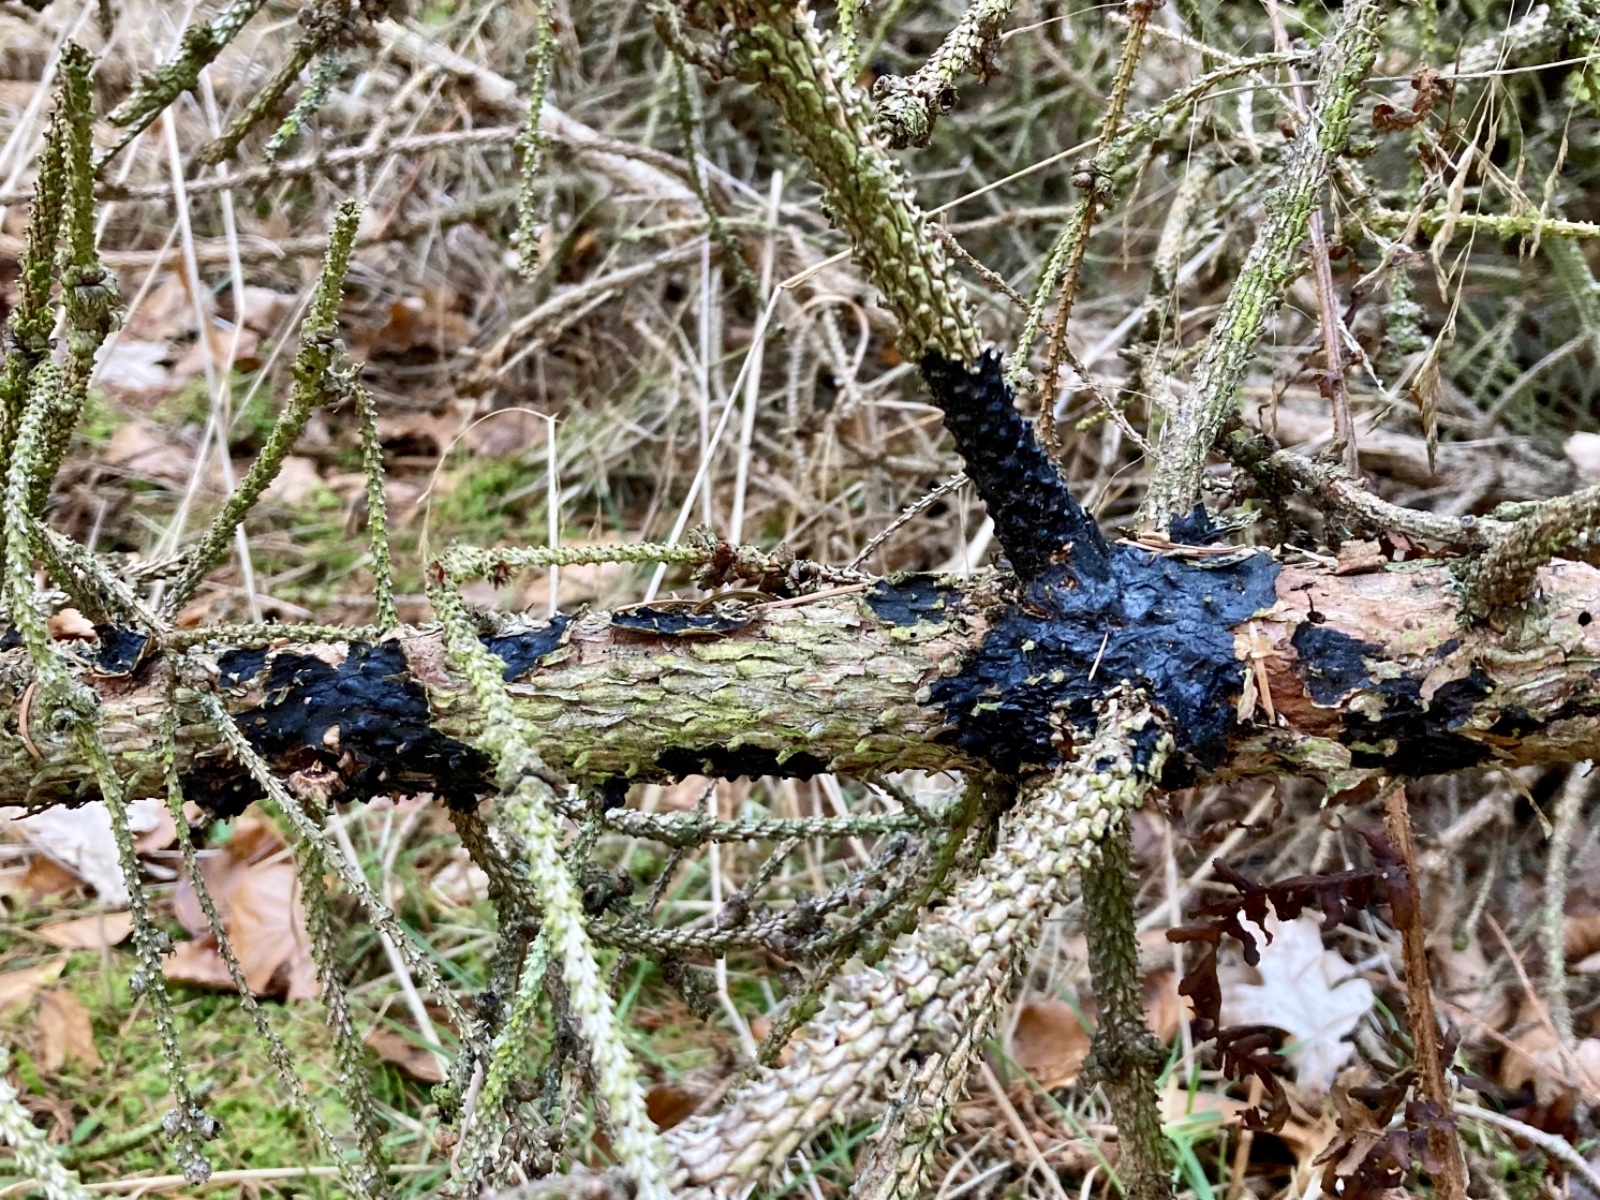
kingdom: Fungi
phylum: Basidiomycota
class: Agaricomycetes
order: Auriculariales
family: Auriculariaceae
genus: Exidia
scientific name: Exidia pithya
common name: gran-bævretop
